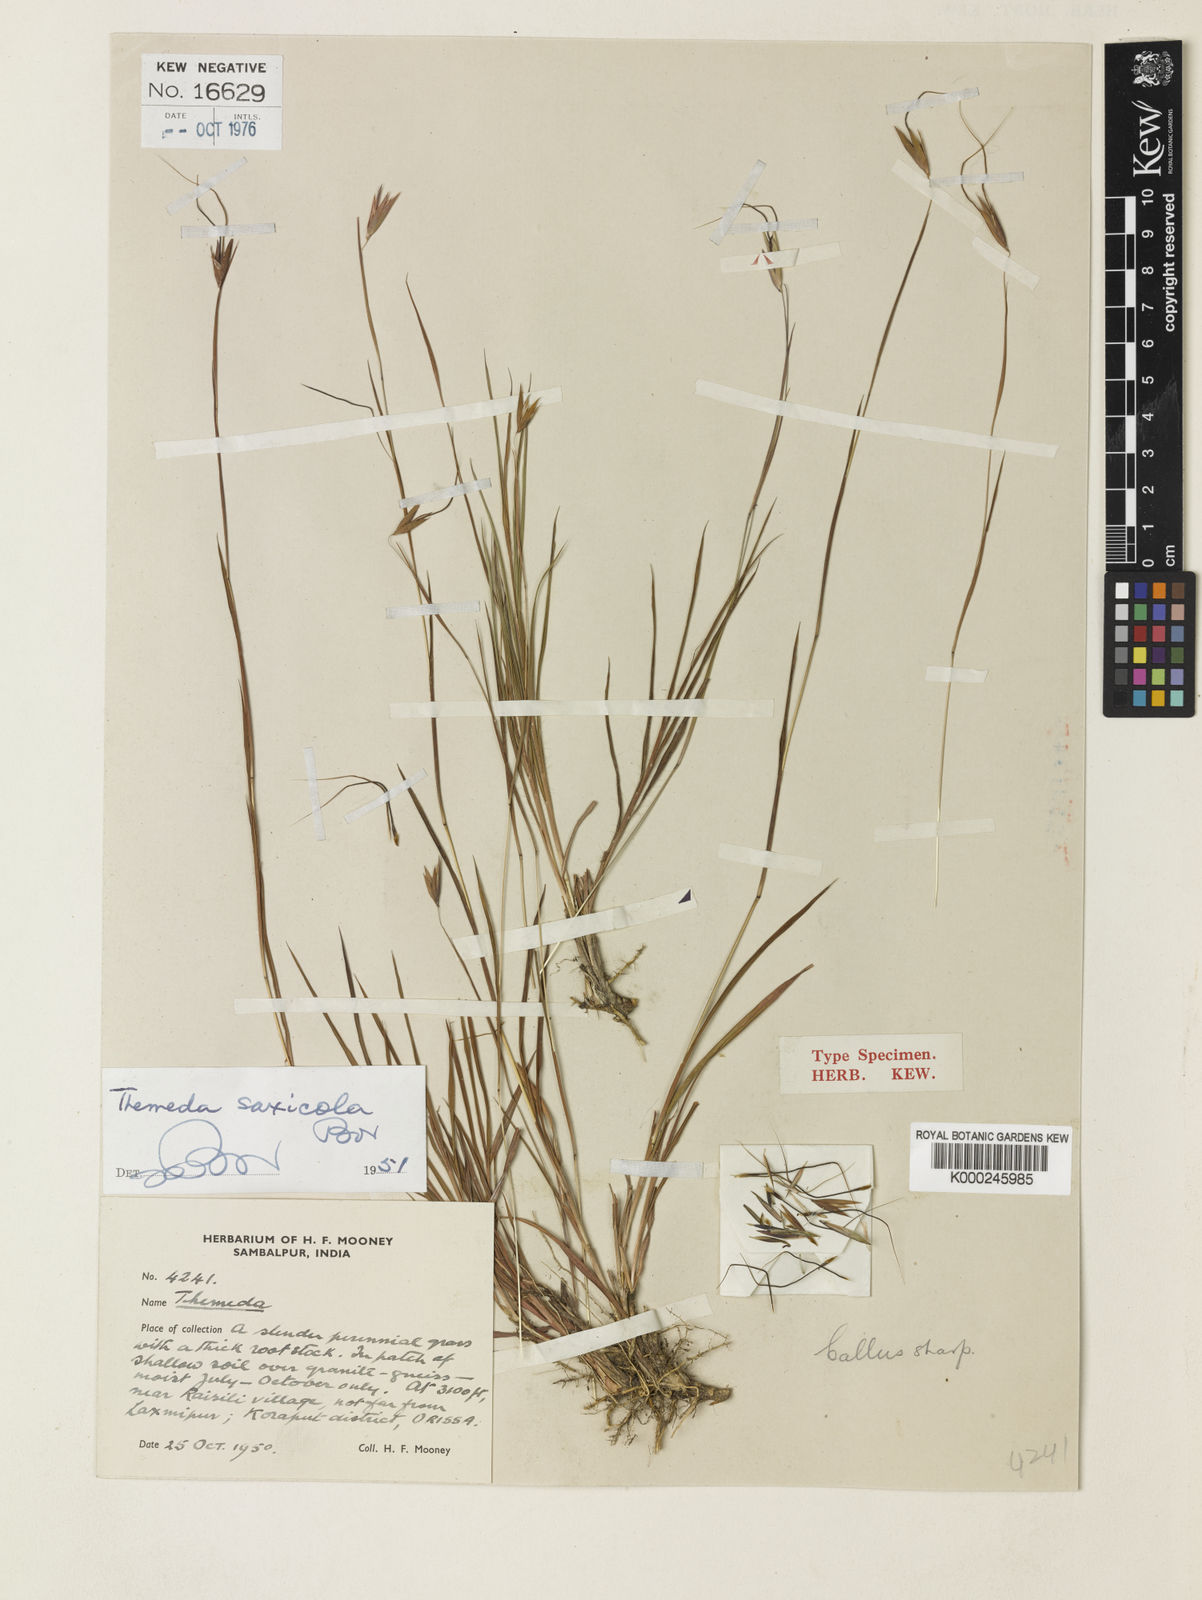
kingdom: Plantae
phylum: Tracheophyta
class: Liliopsida
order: Poales
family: Poaceae
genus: Themeda
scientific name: Themeda saxicola
